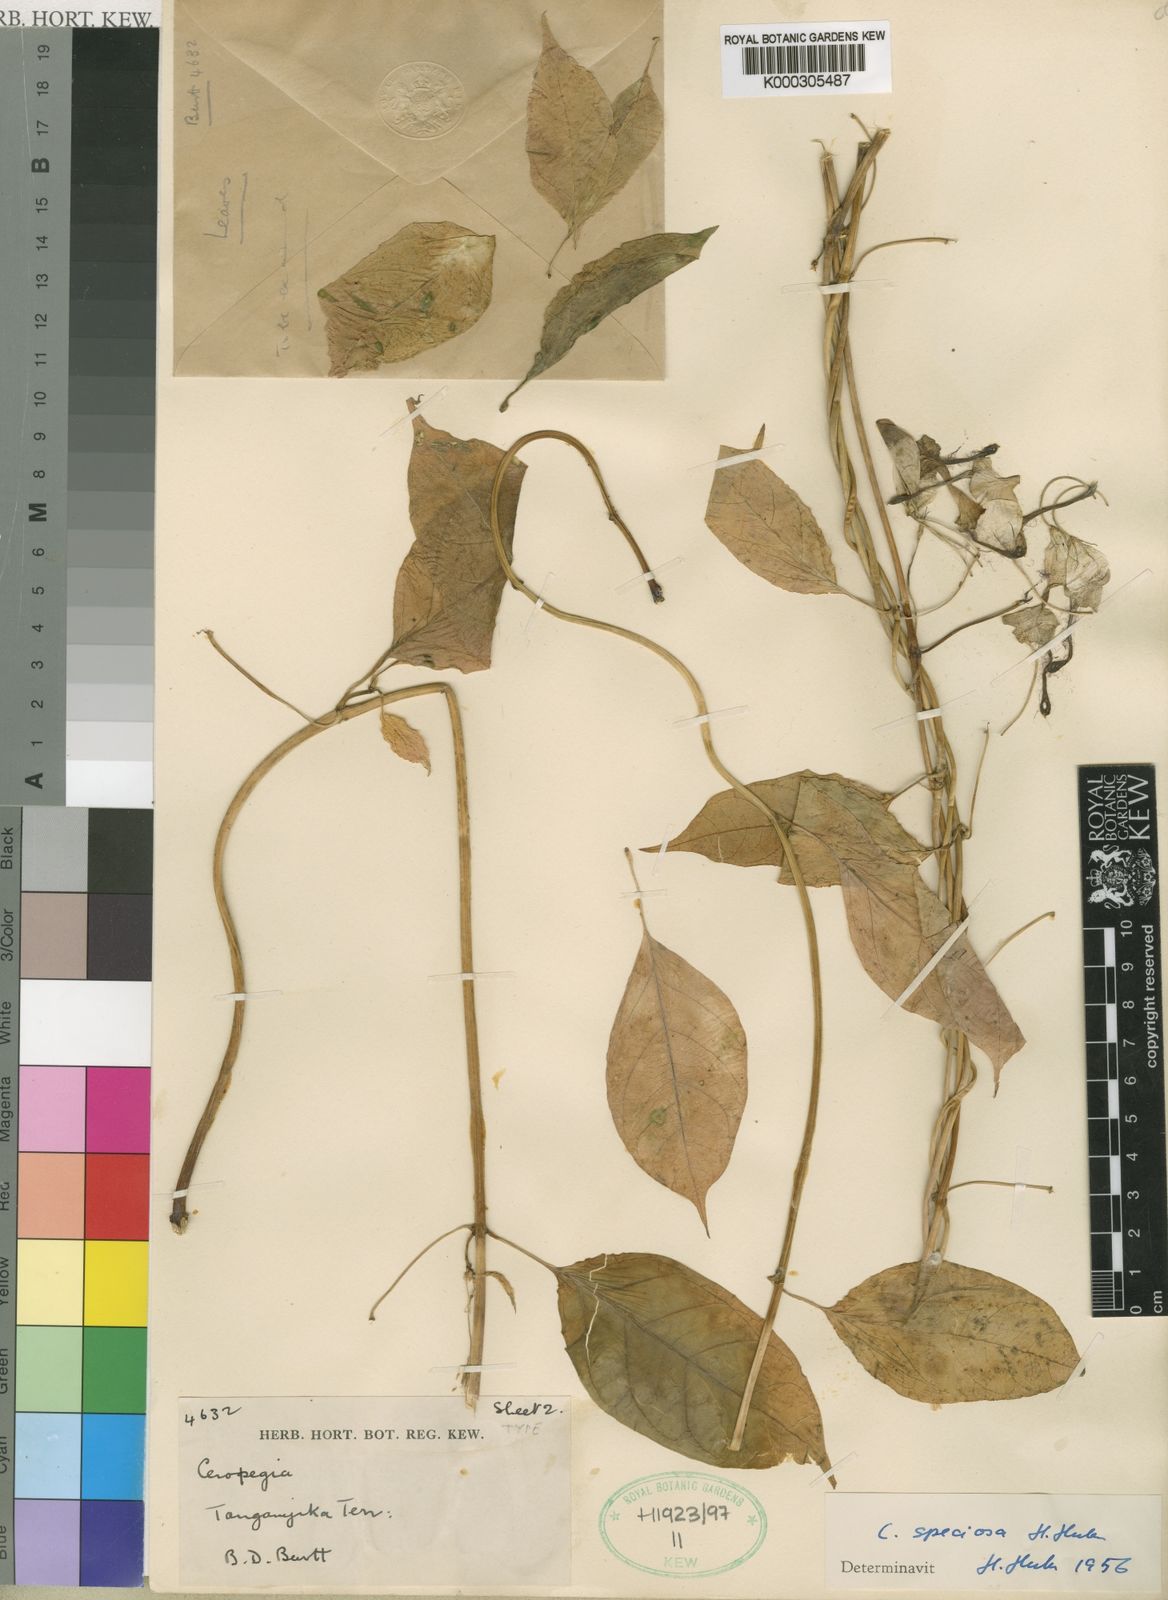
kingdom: Plantae
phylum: Tracheophyta
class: Magnoliopsida
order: Gentianales
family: Apocynaceae
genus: Ceropegia
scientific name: Ceropegia speciosa
